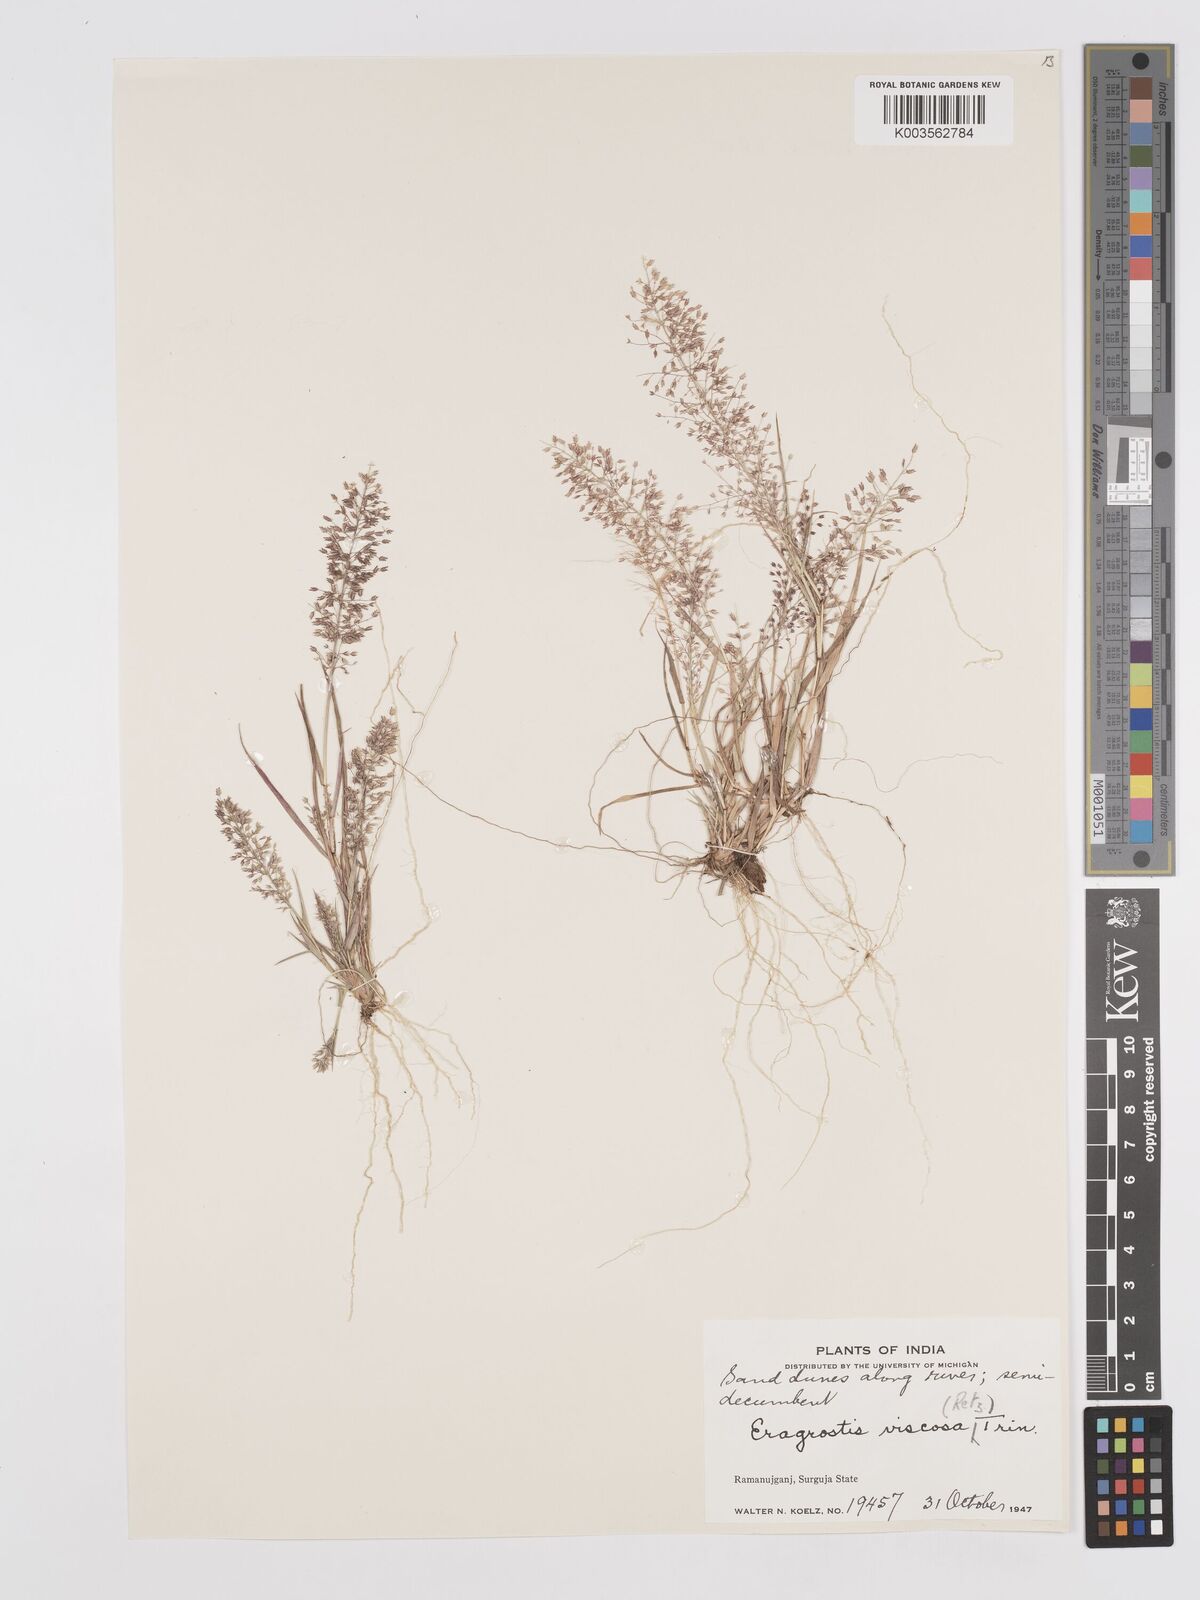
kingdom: Plantae
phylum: Tracheophyta
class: Liliopsida
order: Poales
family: Poaceae
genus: Eragrostis
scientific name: Eragrostis viscosa
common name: Sticky love grass
